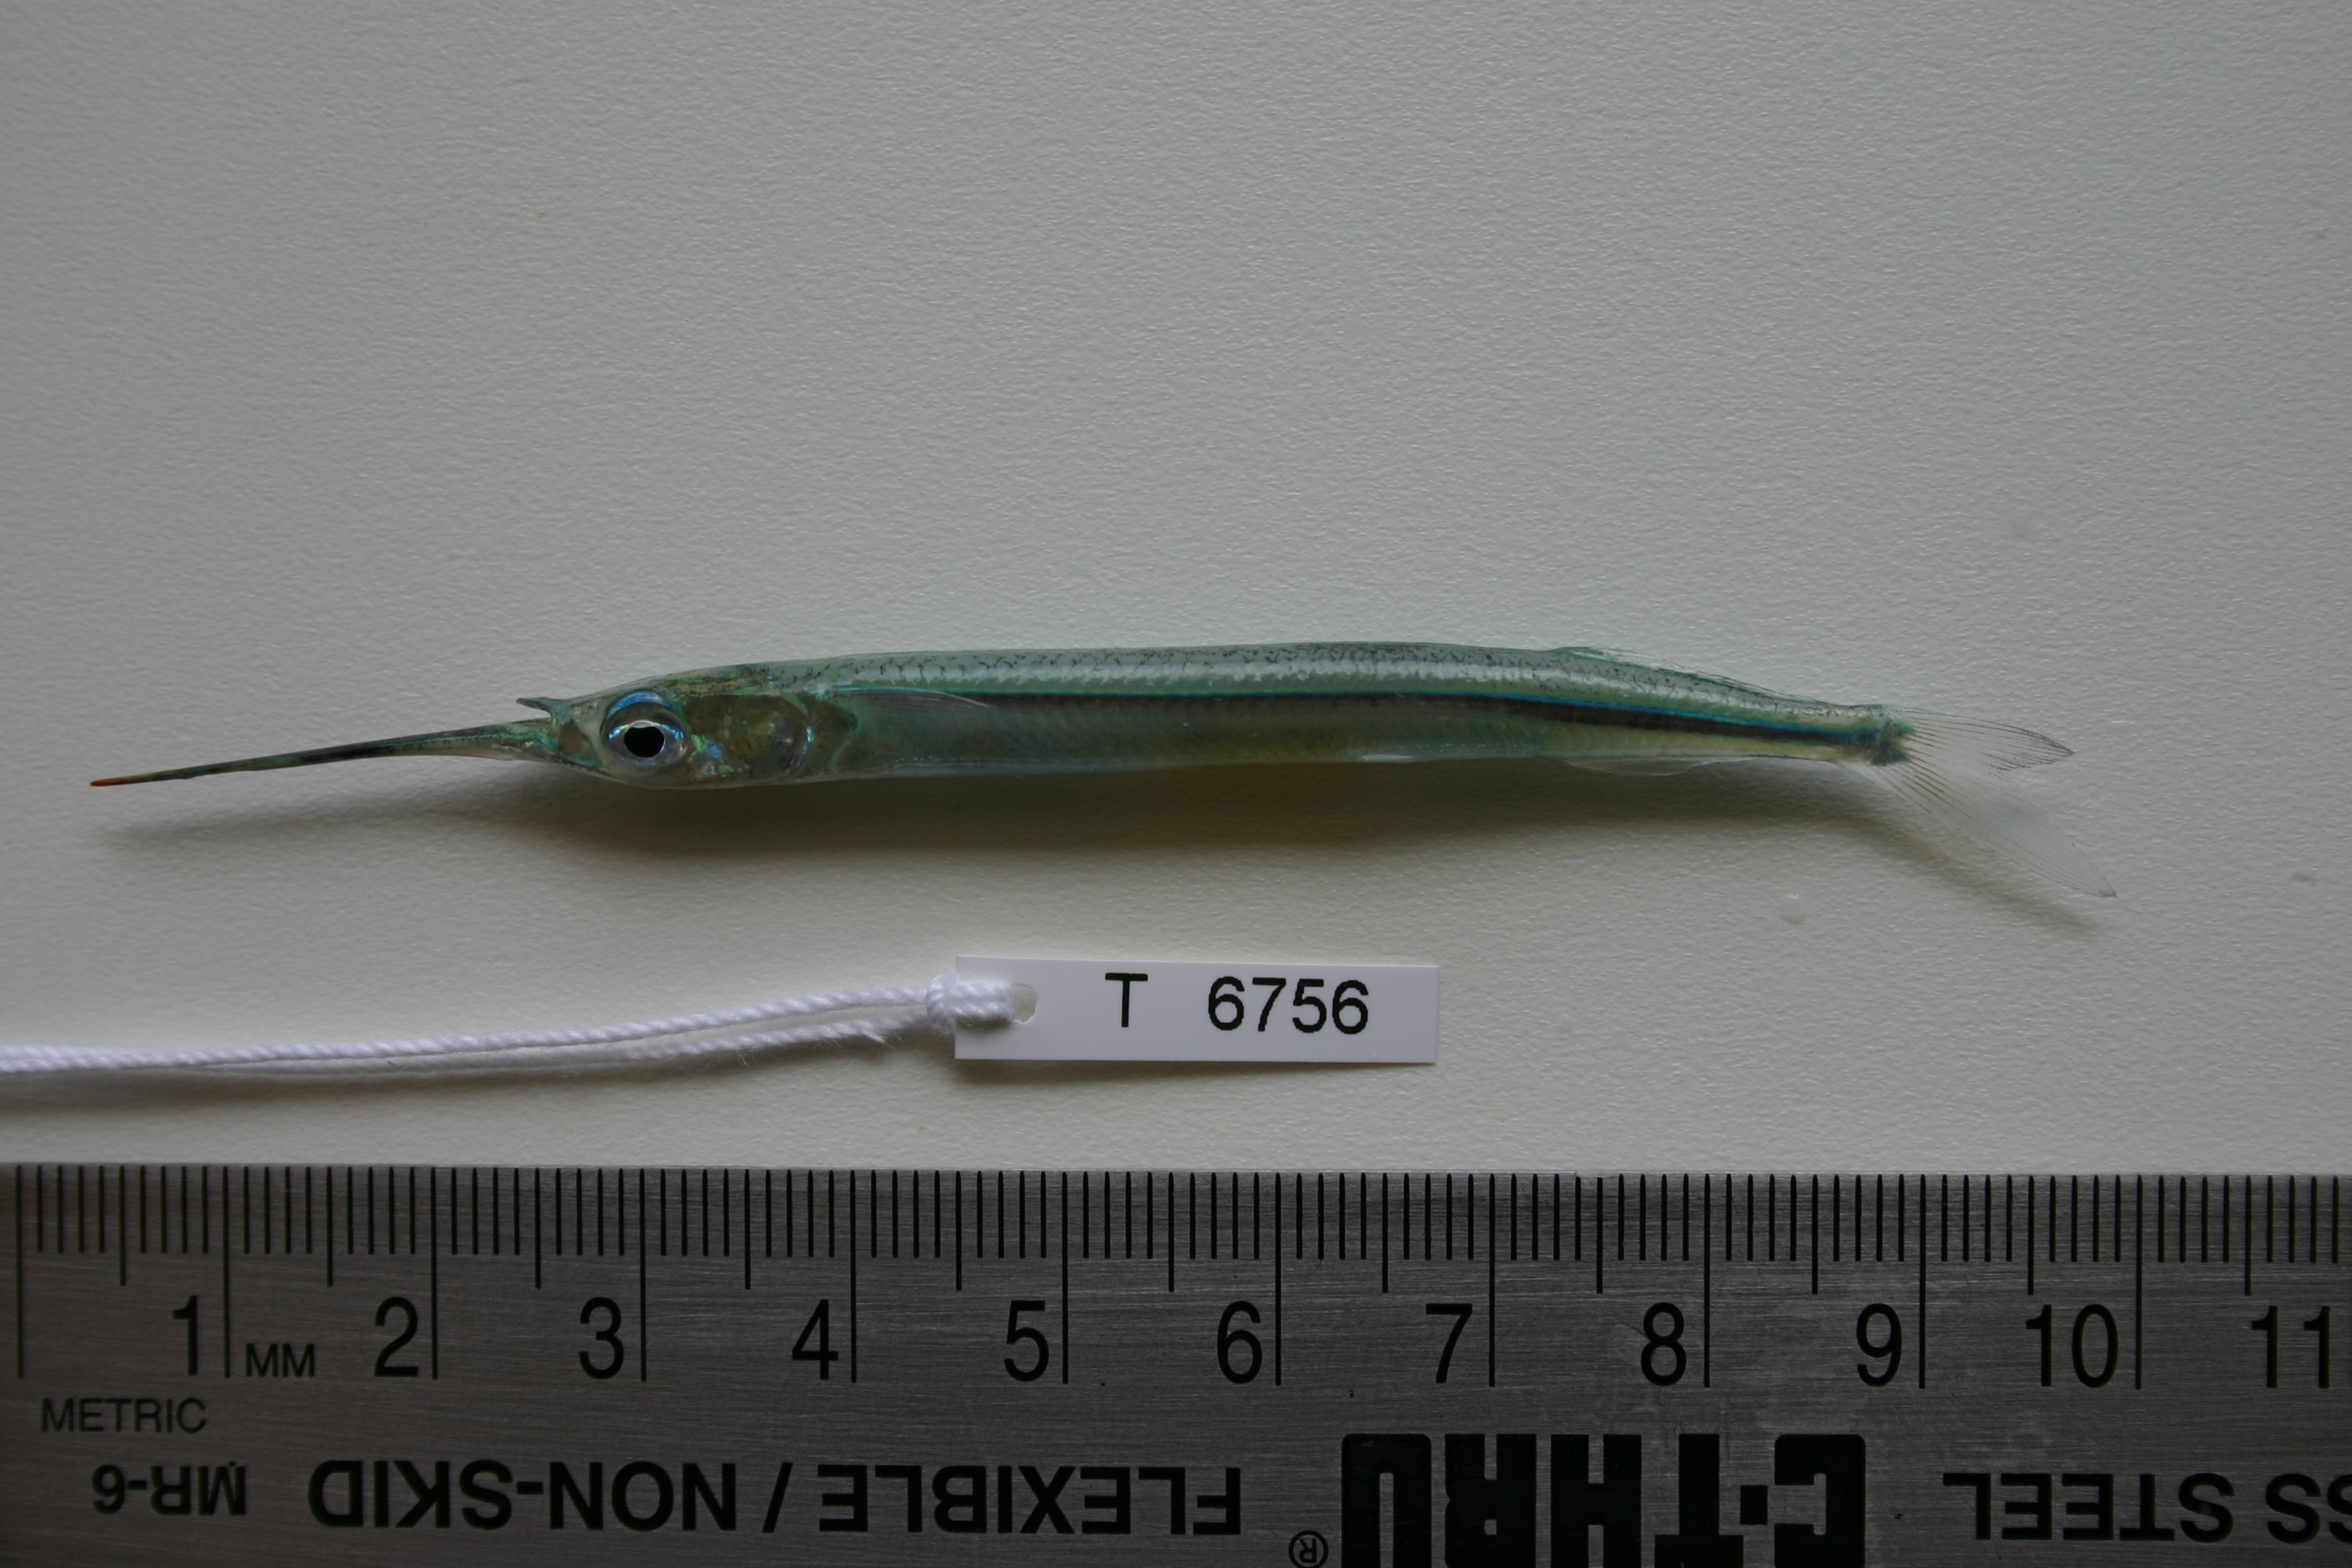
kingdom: Animalia
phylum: Chordata
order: Beloniformes
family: Hemiramphidae
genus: Hyporhamphus
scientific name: Hyporhamphus dussumieri
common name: Dussumier's halfbeak
